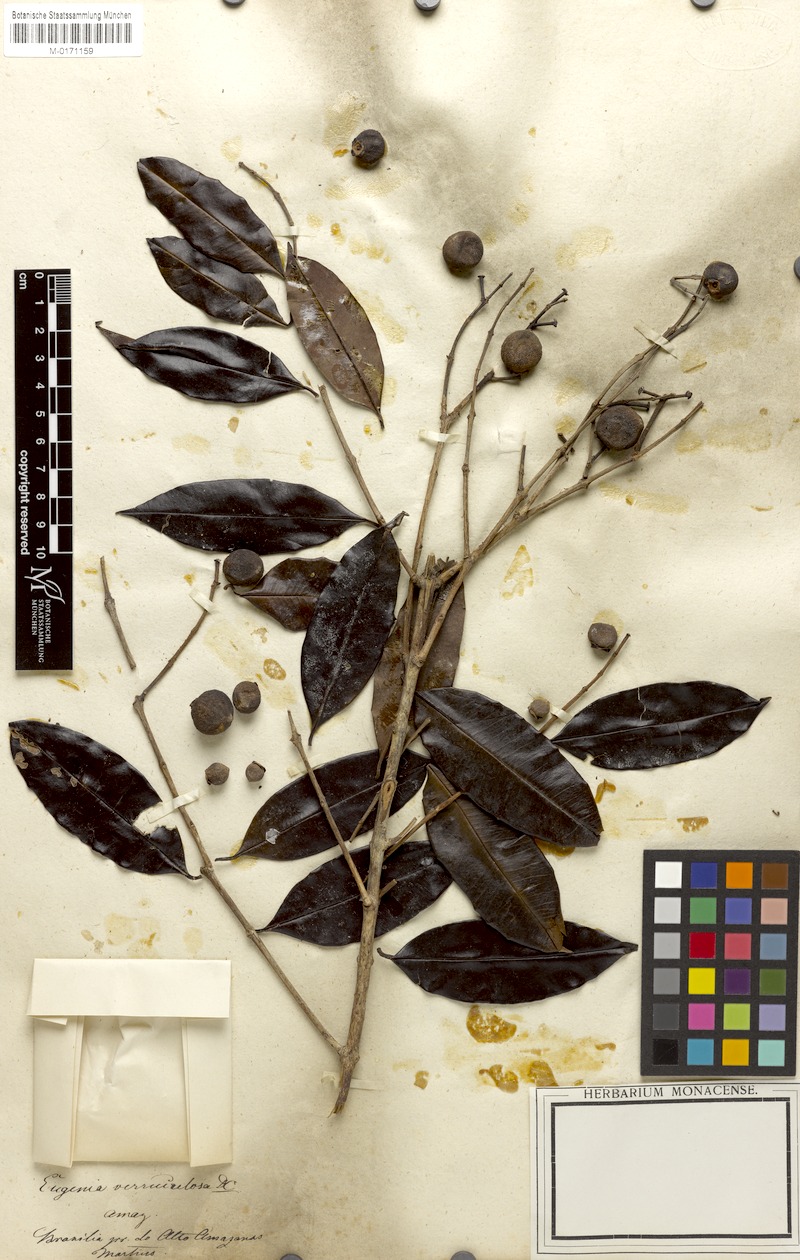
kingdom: Plantae
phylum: Tracheophyta
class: Magnoliopsida
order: Myrtales
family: Myrtaceae
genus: Eugenia
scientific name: Eugenia polystachya
